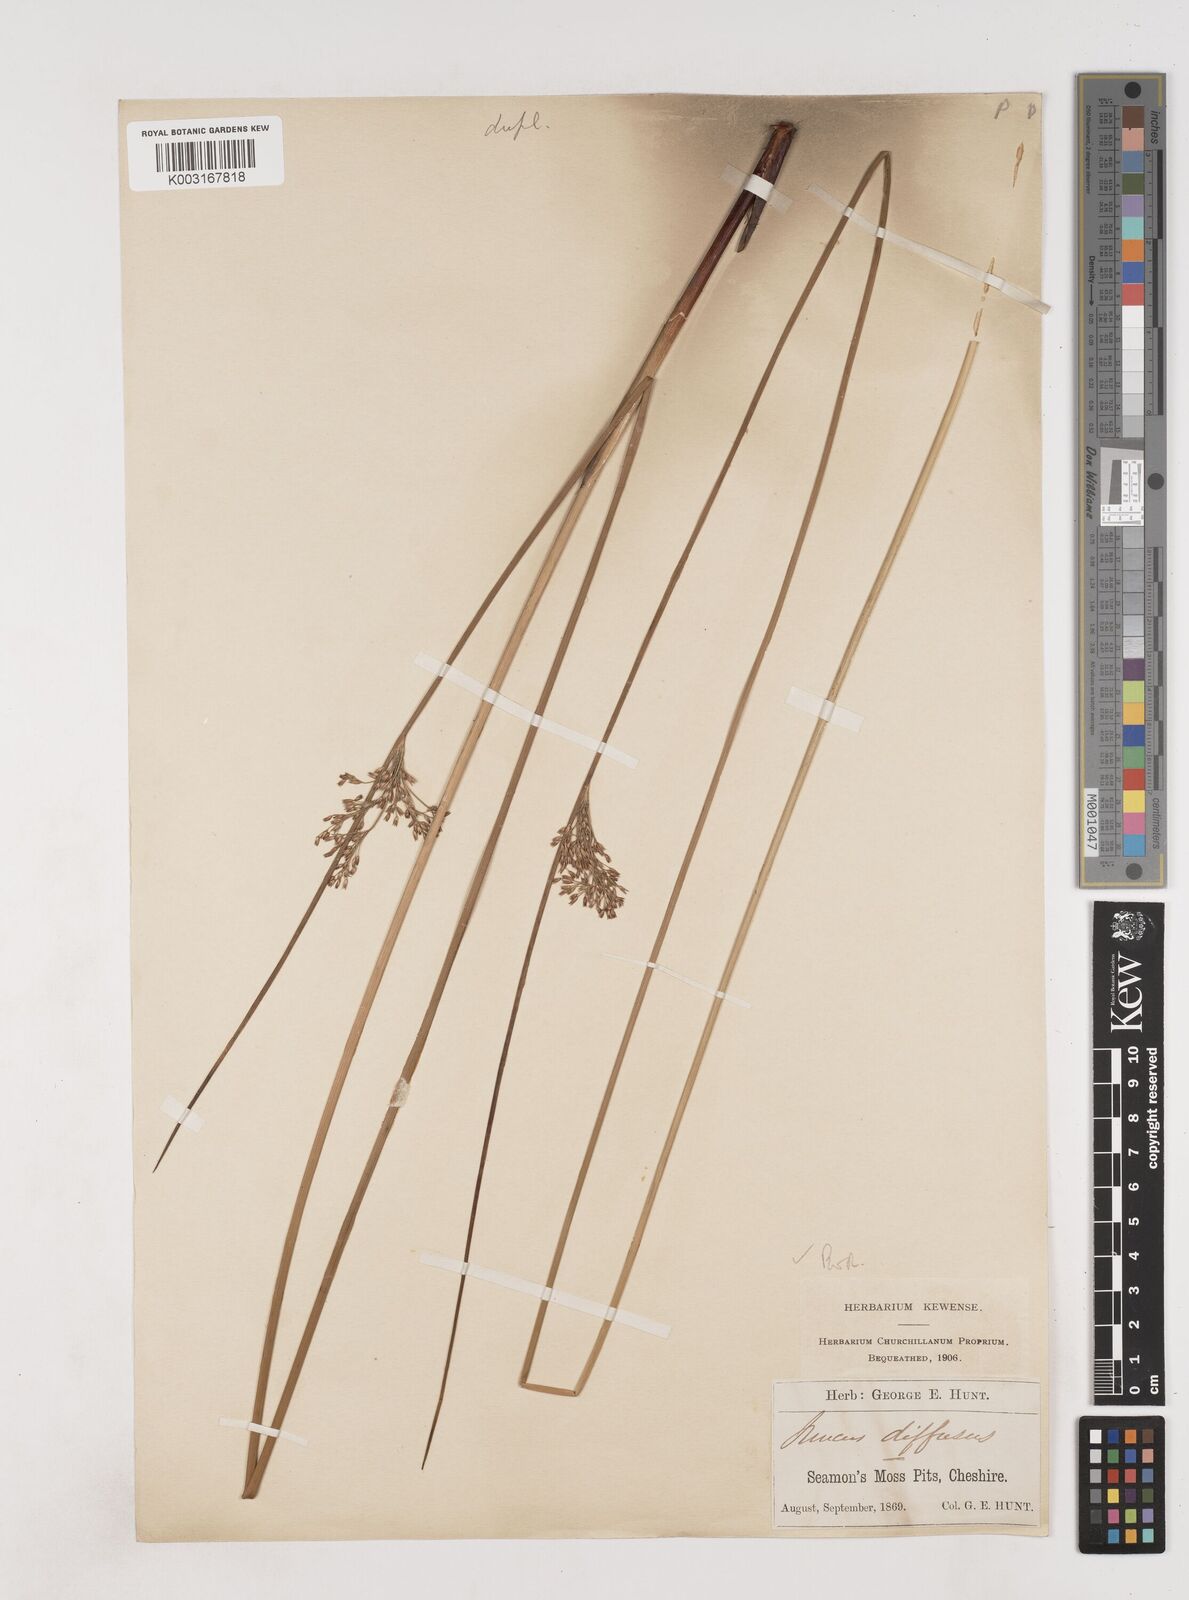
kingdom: Plantae
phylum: Tracheophyta
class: Liliopsida
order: Poales
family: Juncaceae
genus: Juncus
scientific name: Juncus effusus
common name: Soft rush
